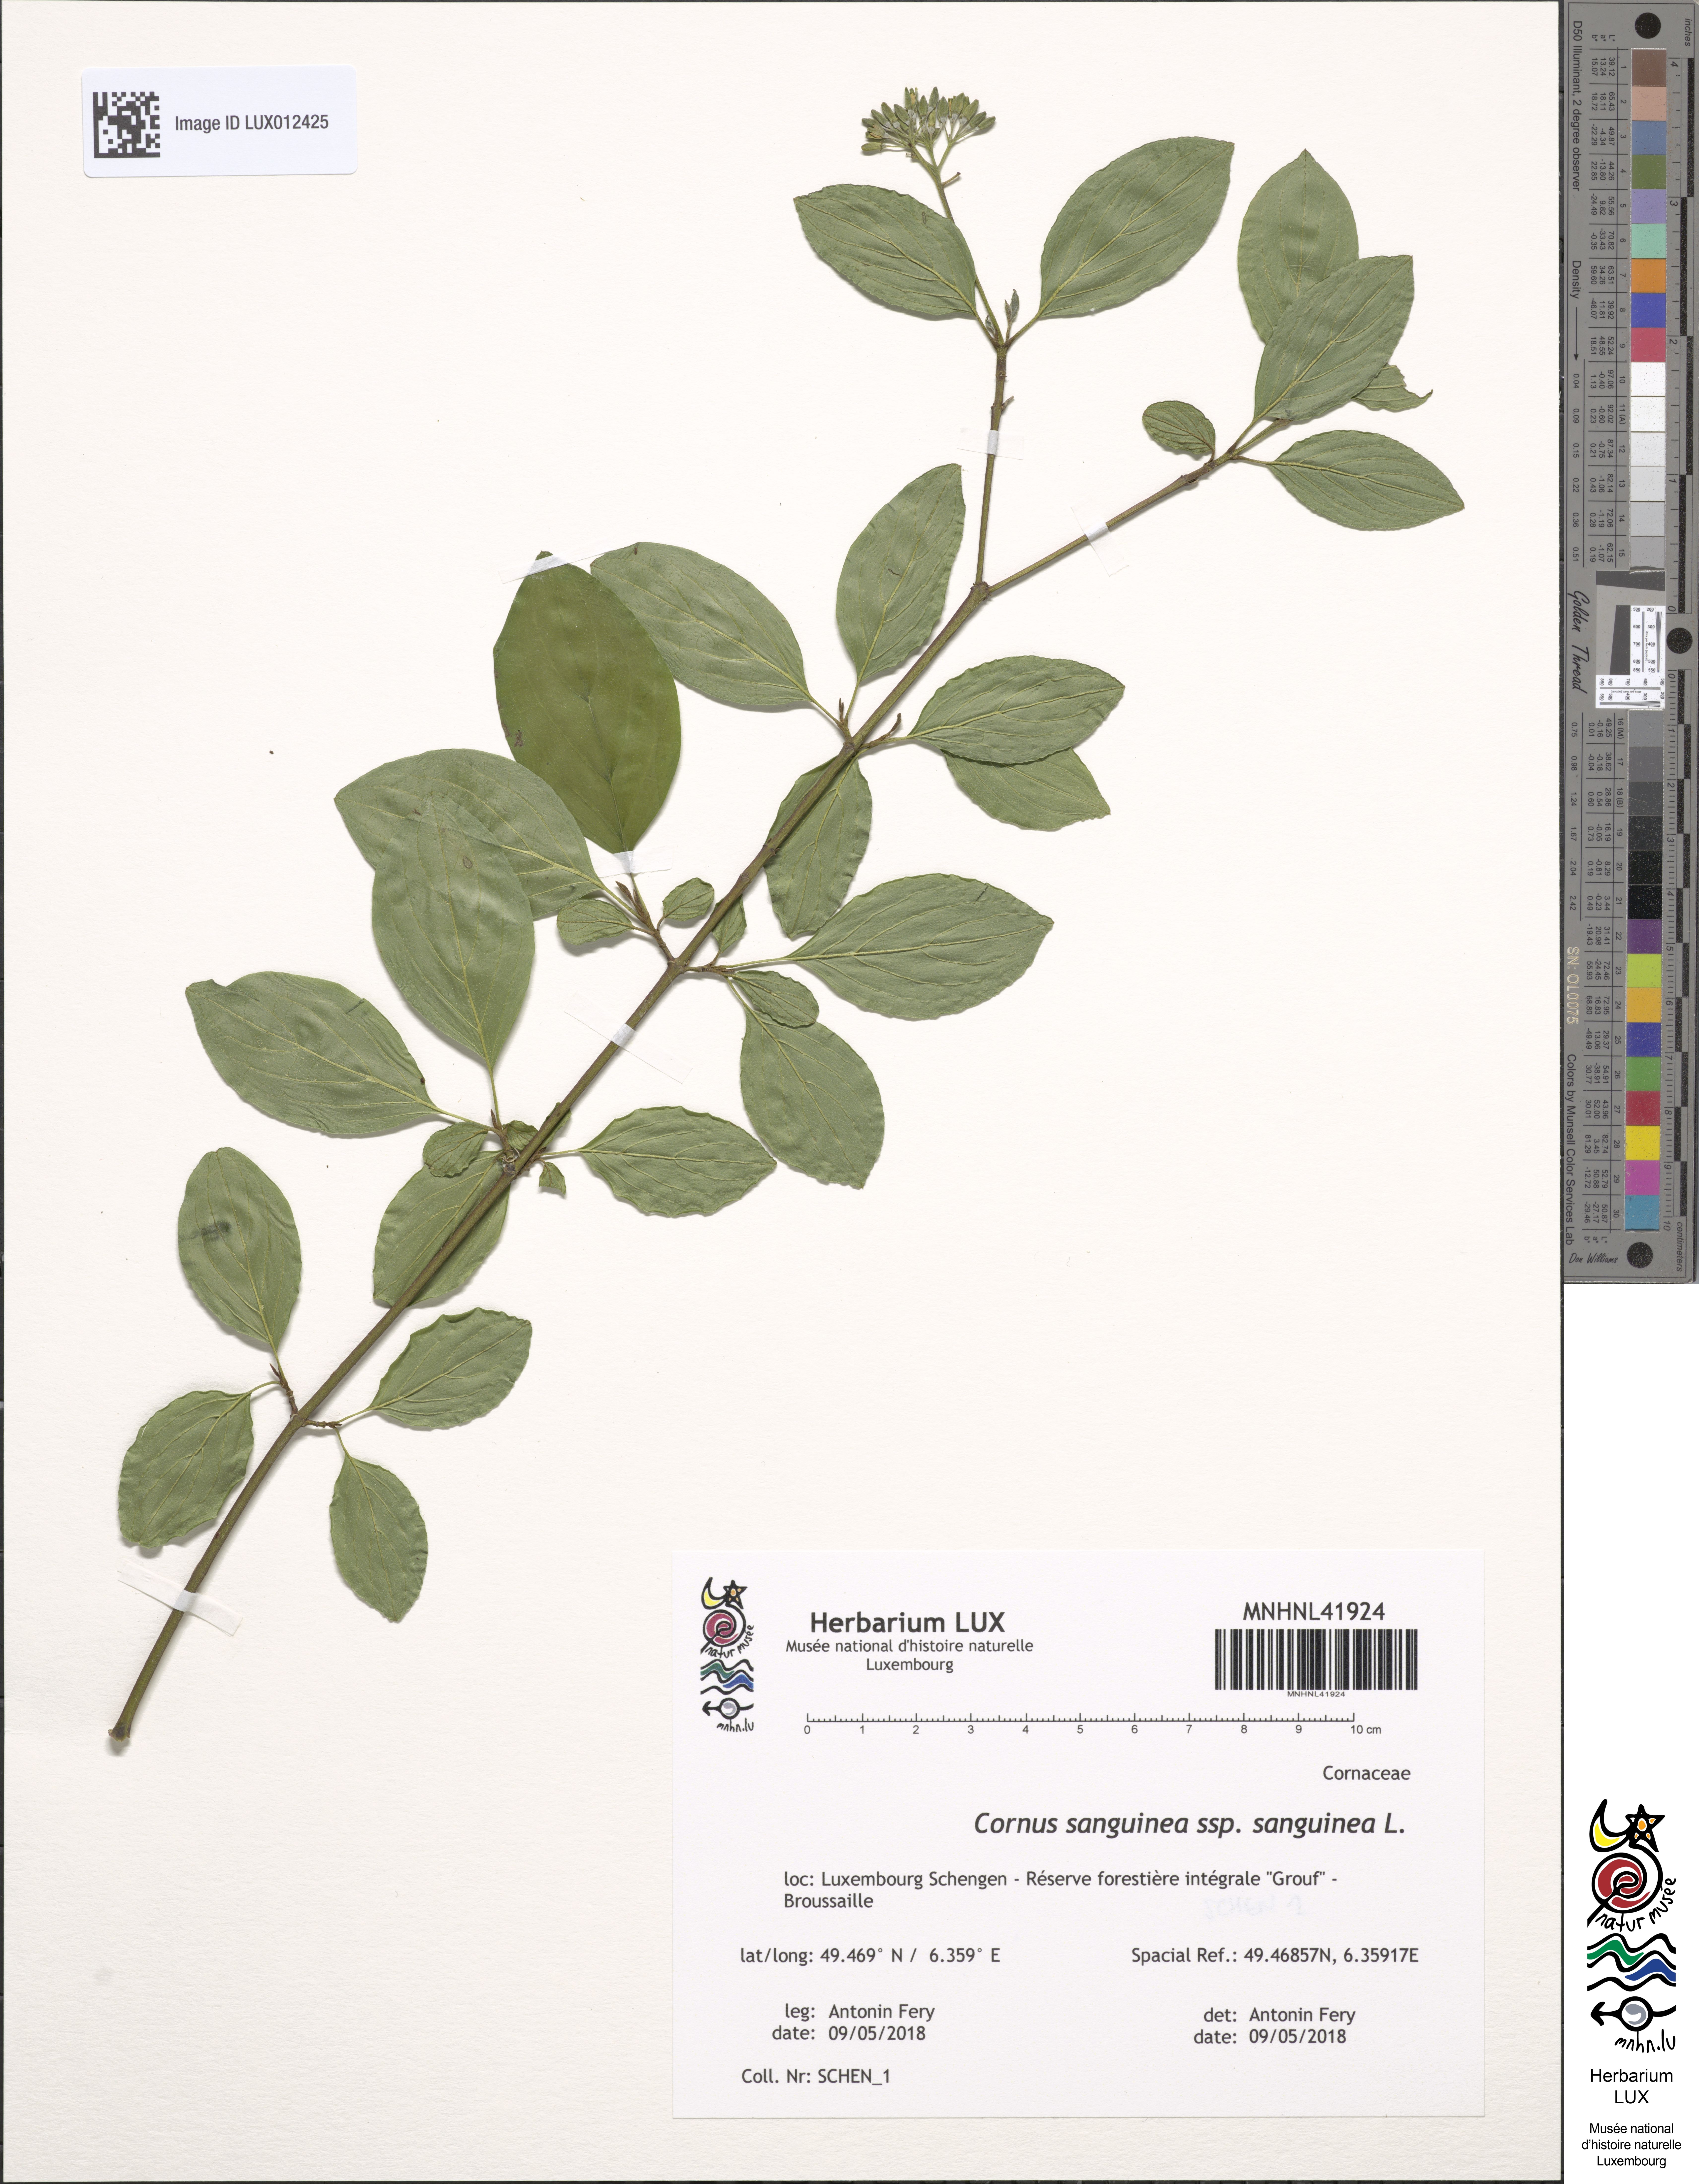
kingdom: Plantae
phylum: Tracheophyta
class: Magnoliopsida
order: Cornales
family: Cornaceae
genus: Cornus
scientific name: Cornus sanguinea
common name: Dogwood
